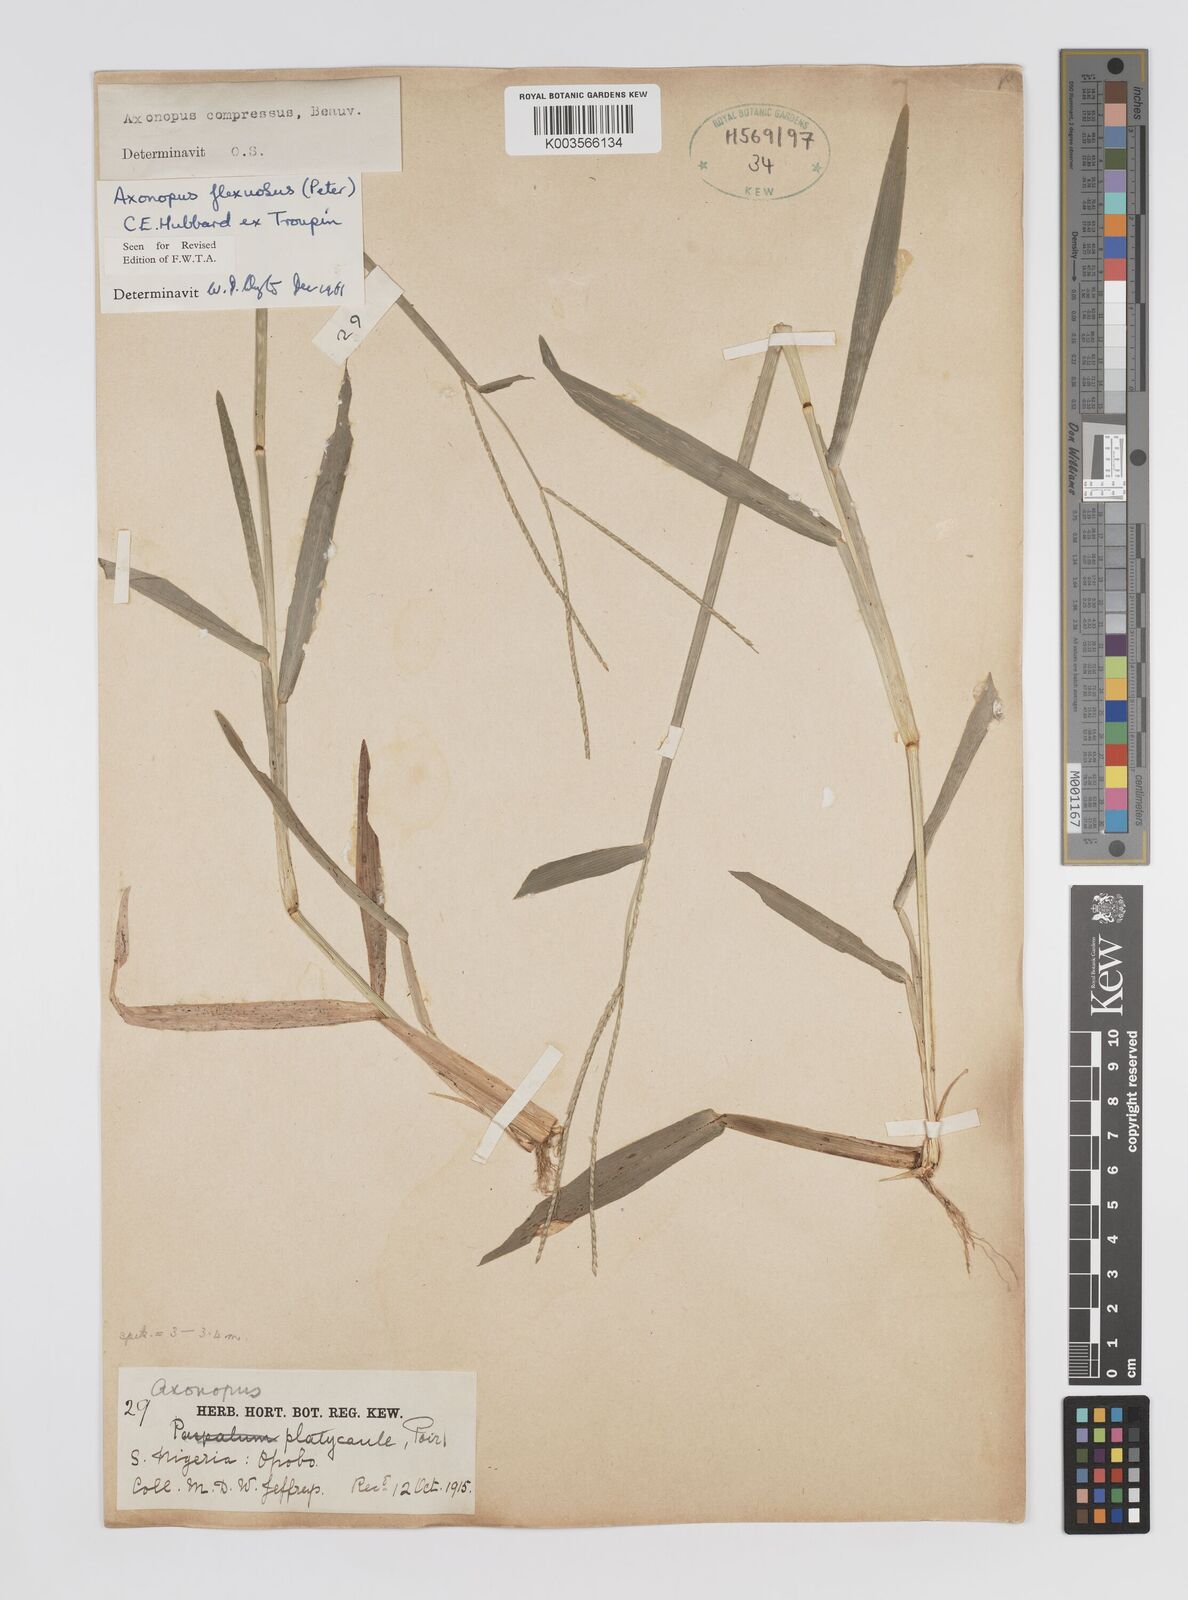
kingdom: Plantae
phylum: Tracheophyta
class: Liliopsida
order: Poales
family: Poaceae
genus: Axonopus
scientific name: Axonopus flexuosus
